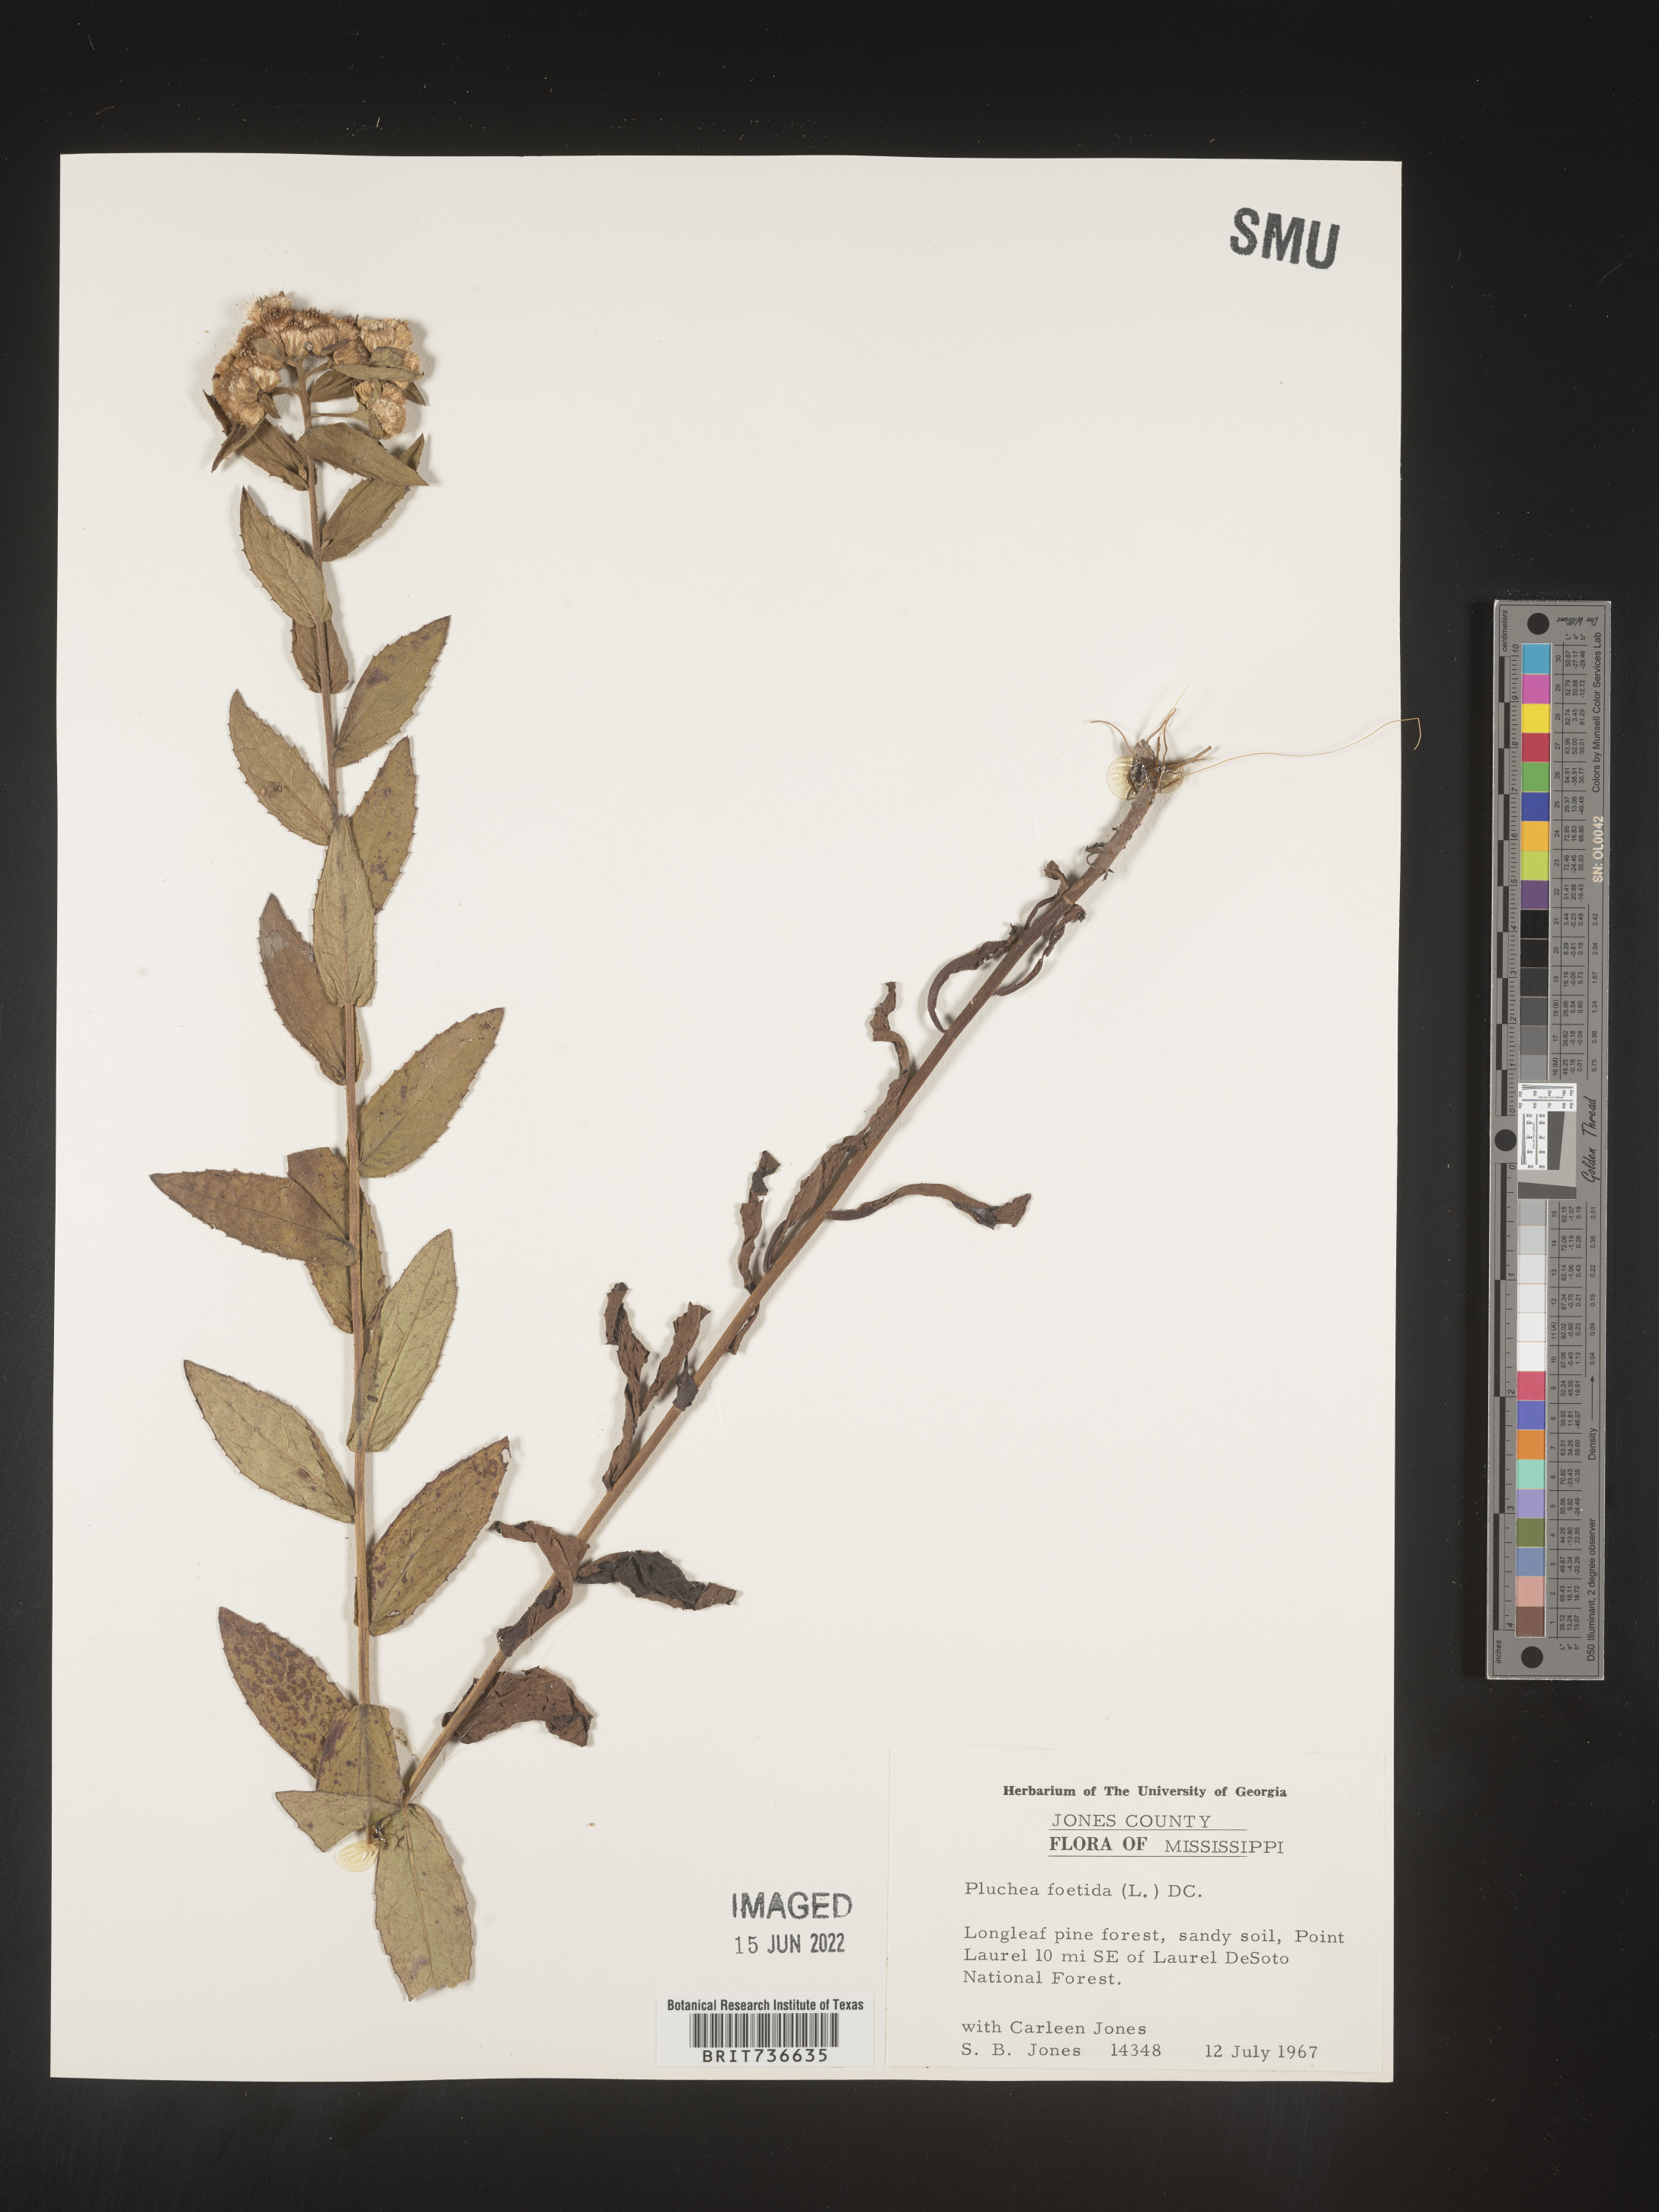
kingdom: Plantae
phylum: Tracheophyta
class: Magnoliopsida
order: Asterales
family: Asteraceae
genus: Pluchea
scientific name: Pluchea foetida
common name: Stinking camphorweed
